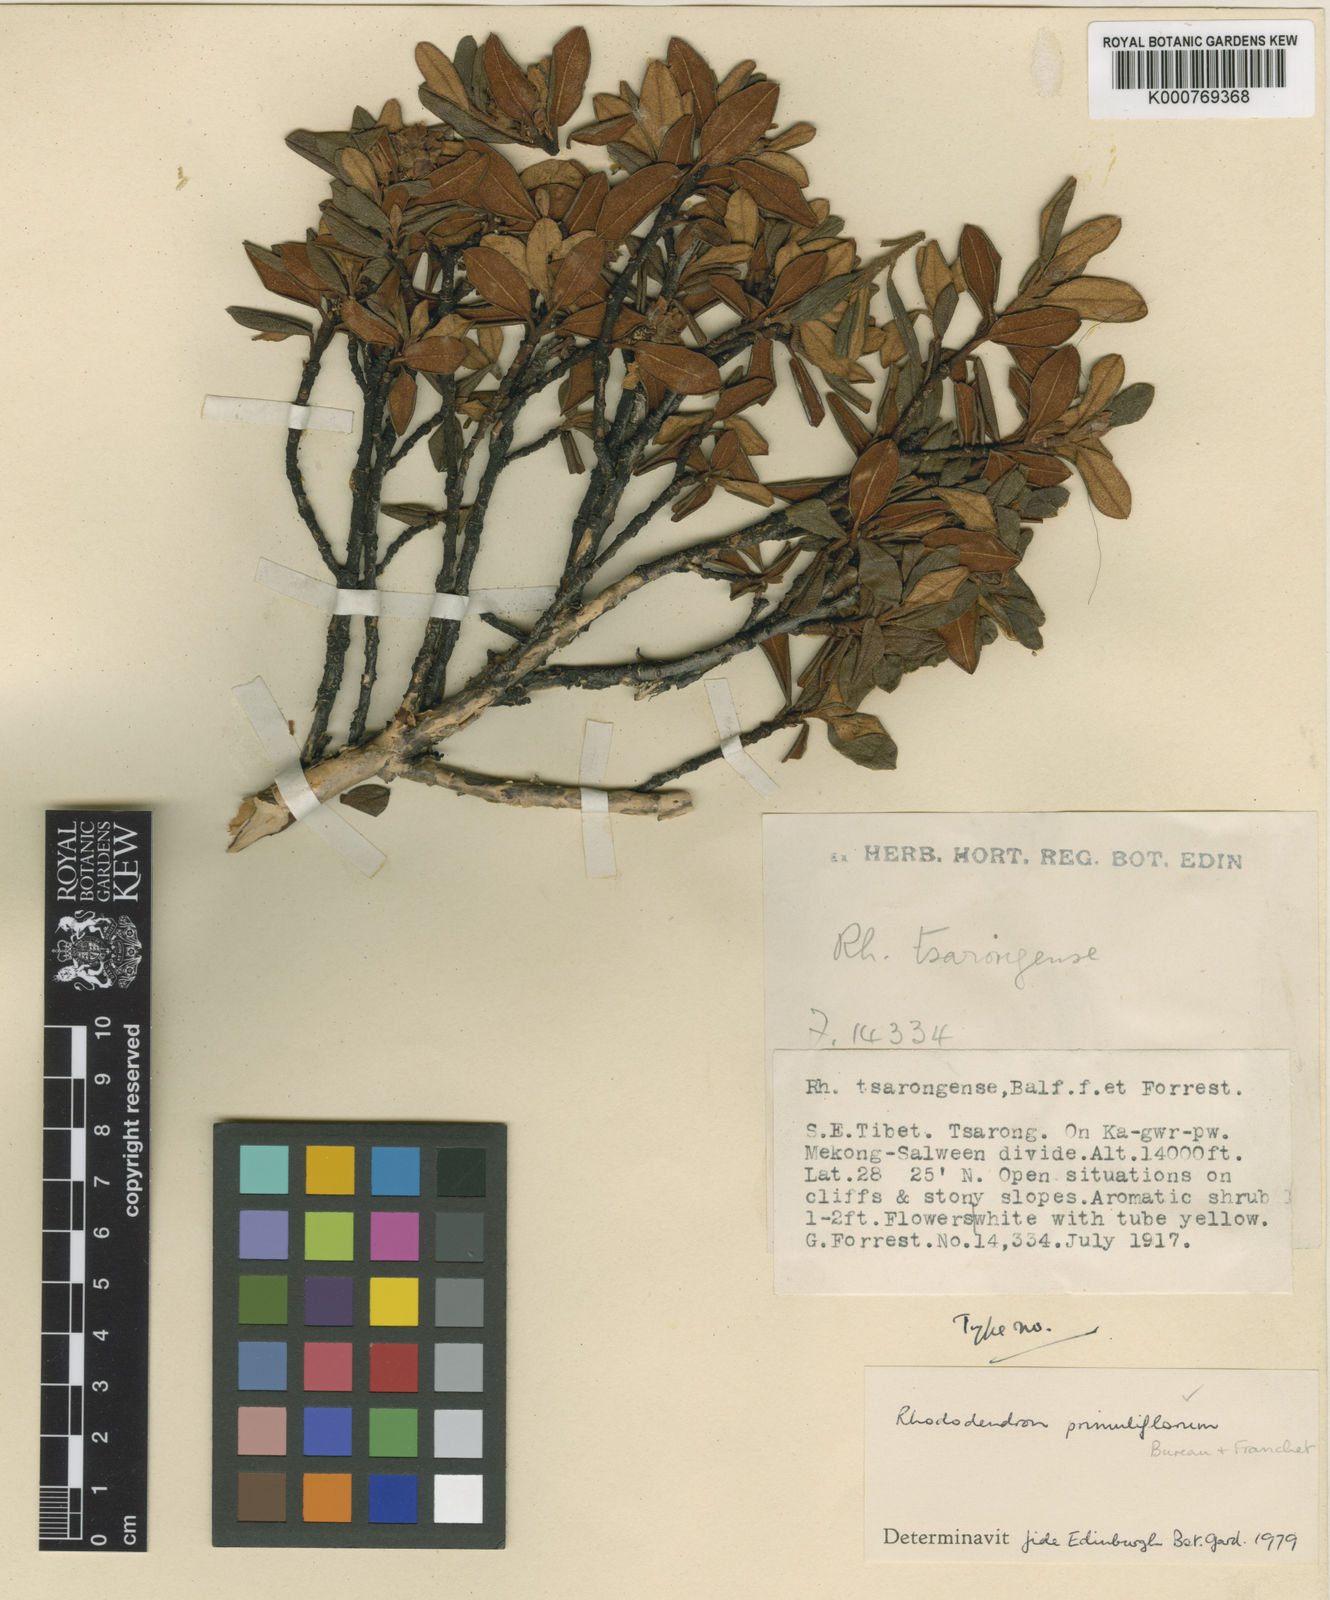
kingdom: Plantae
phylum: Tracheophyta
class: Magnoliopsida
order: Ericales
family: Ericaceae
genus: Rhododendron
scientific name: Rhododendron primuliflorum
